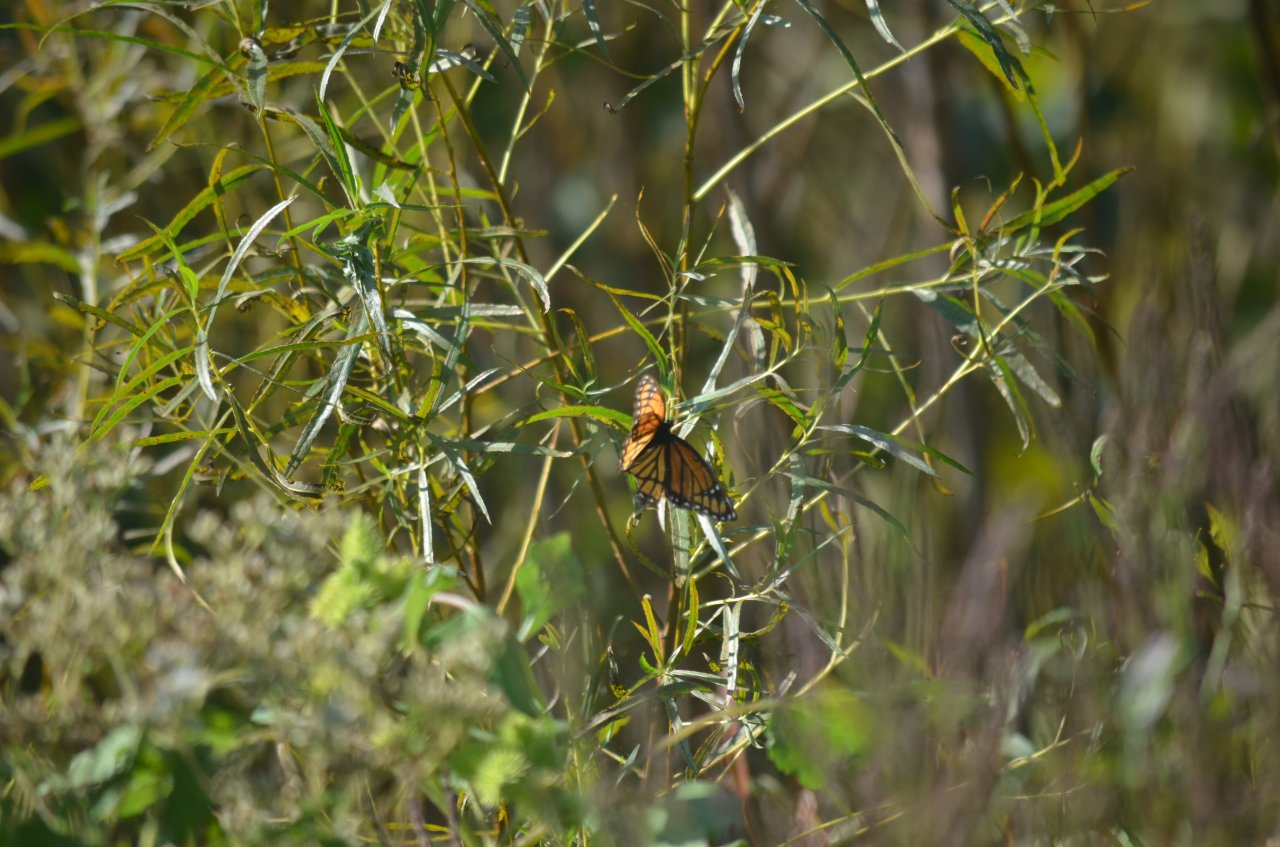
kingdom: Animalia
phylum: Arthropoda
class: Insecta
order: Lepidoptera
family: Nymphalidae
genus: Limenitis
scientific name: Limenitis archippus
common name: Viceroy
